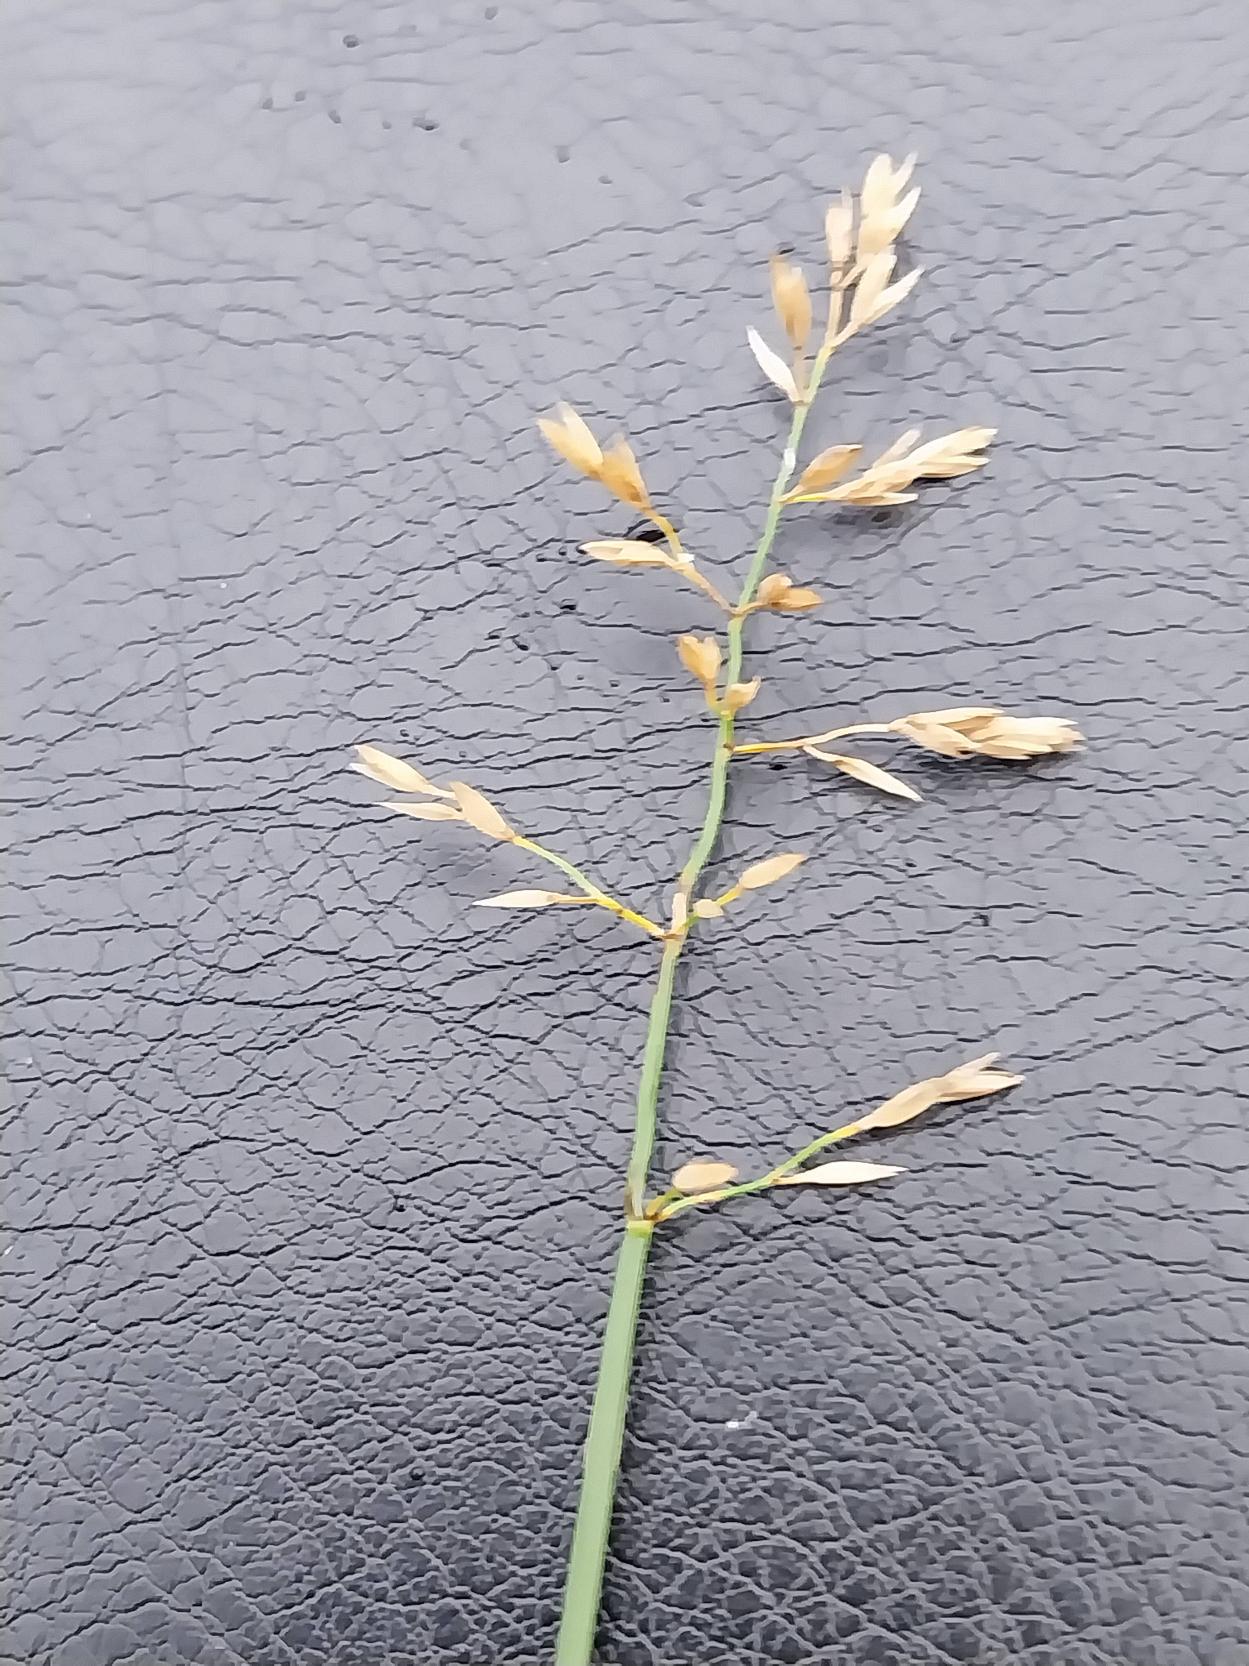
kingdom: Plantae
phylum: Tracheophyta
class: Liliopsida
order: Poales
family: Poaceae
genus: Poa
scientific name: Poa compressa
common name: Fladstrået rapgræs
